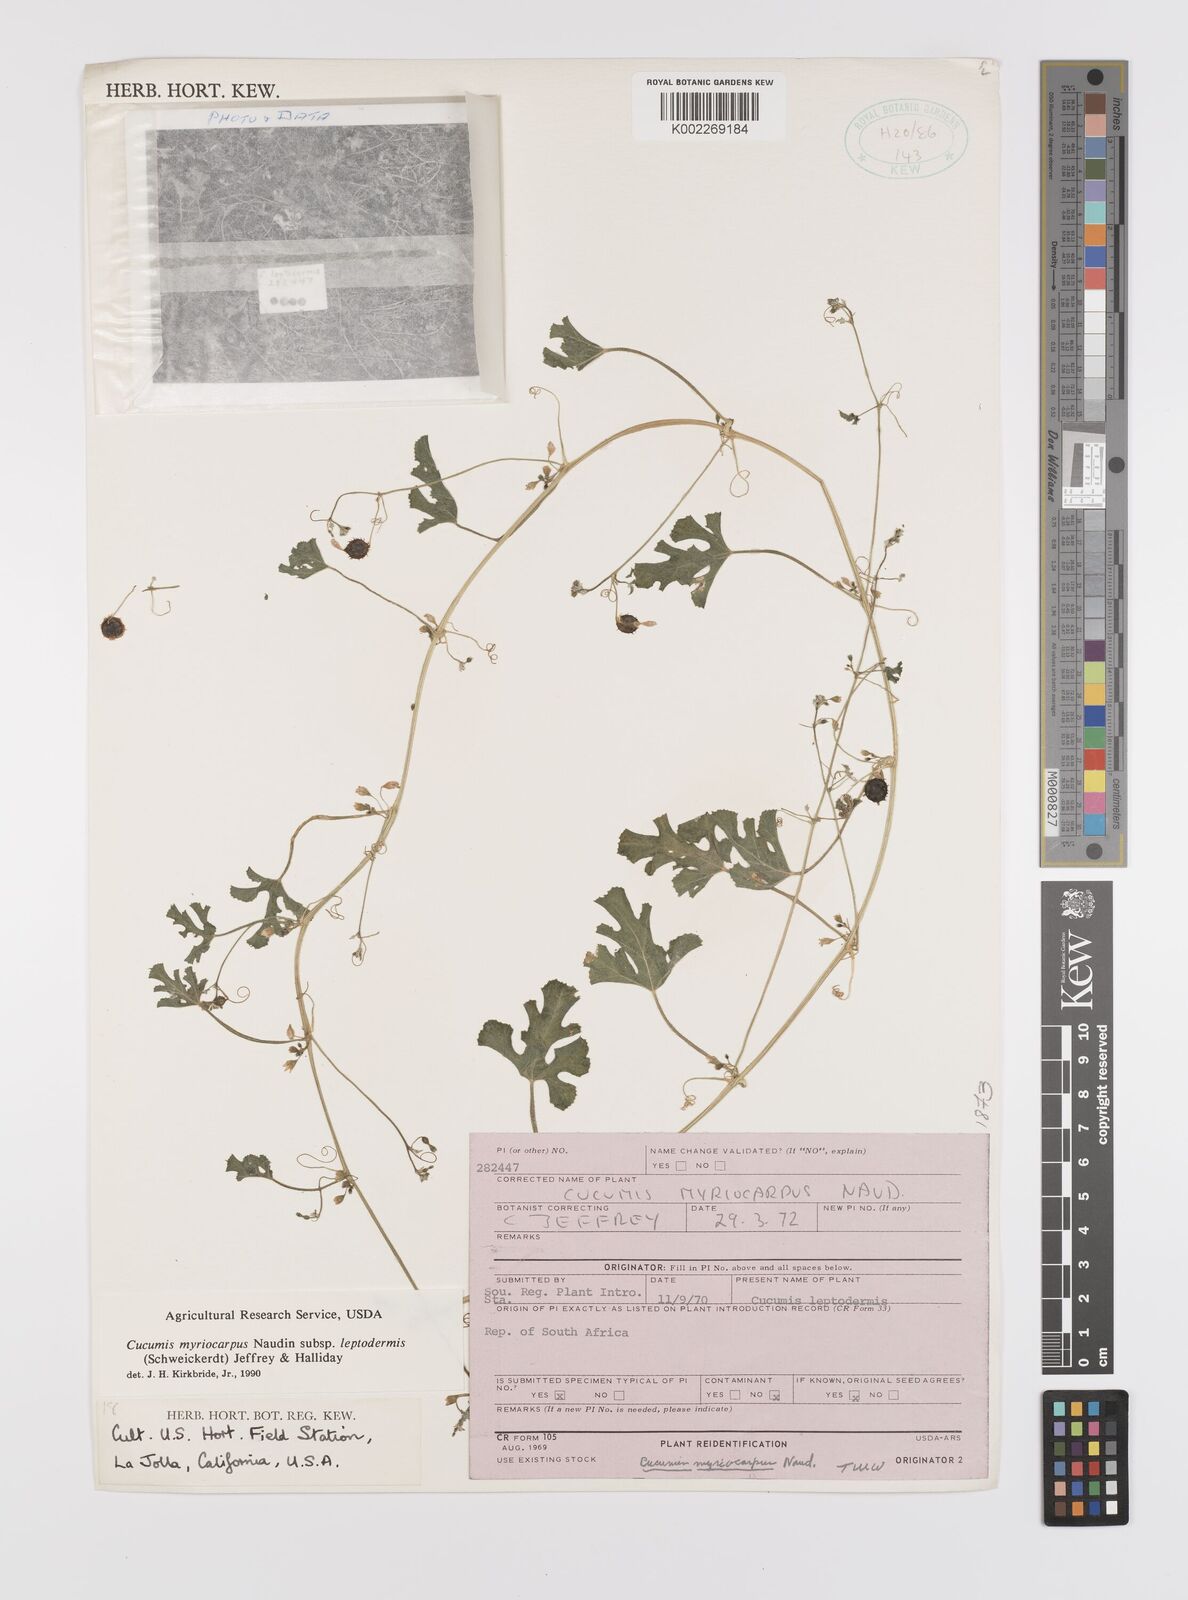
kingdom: Plantae
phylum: Tracheophyta
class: Magnoliopsida
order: Cucurbitales
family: Cucurbitaceae
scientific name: Cucurbitaceae
